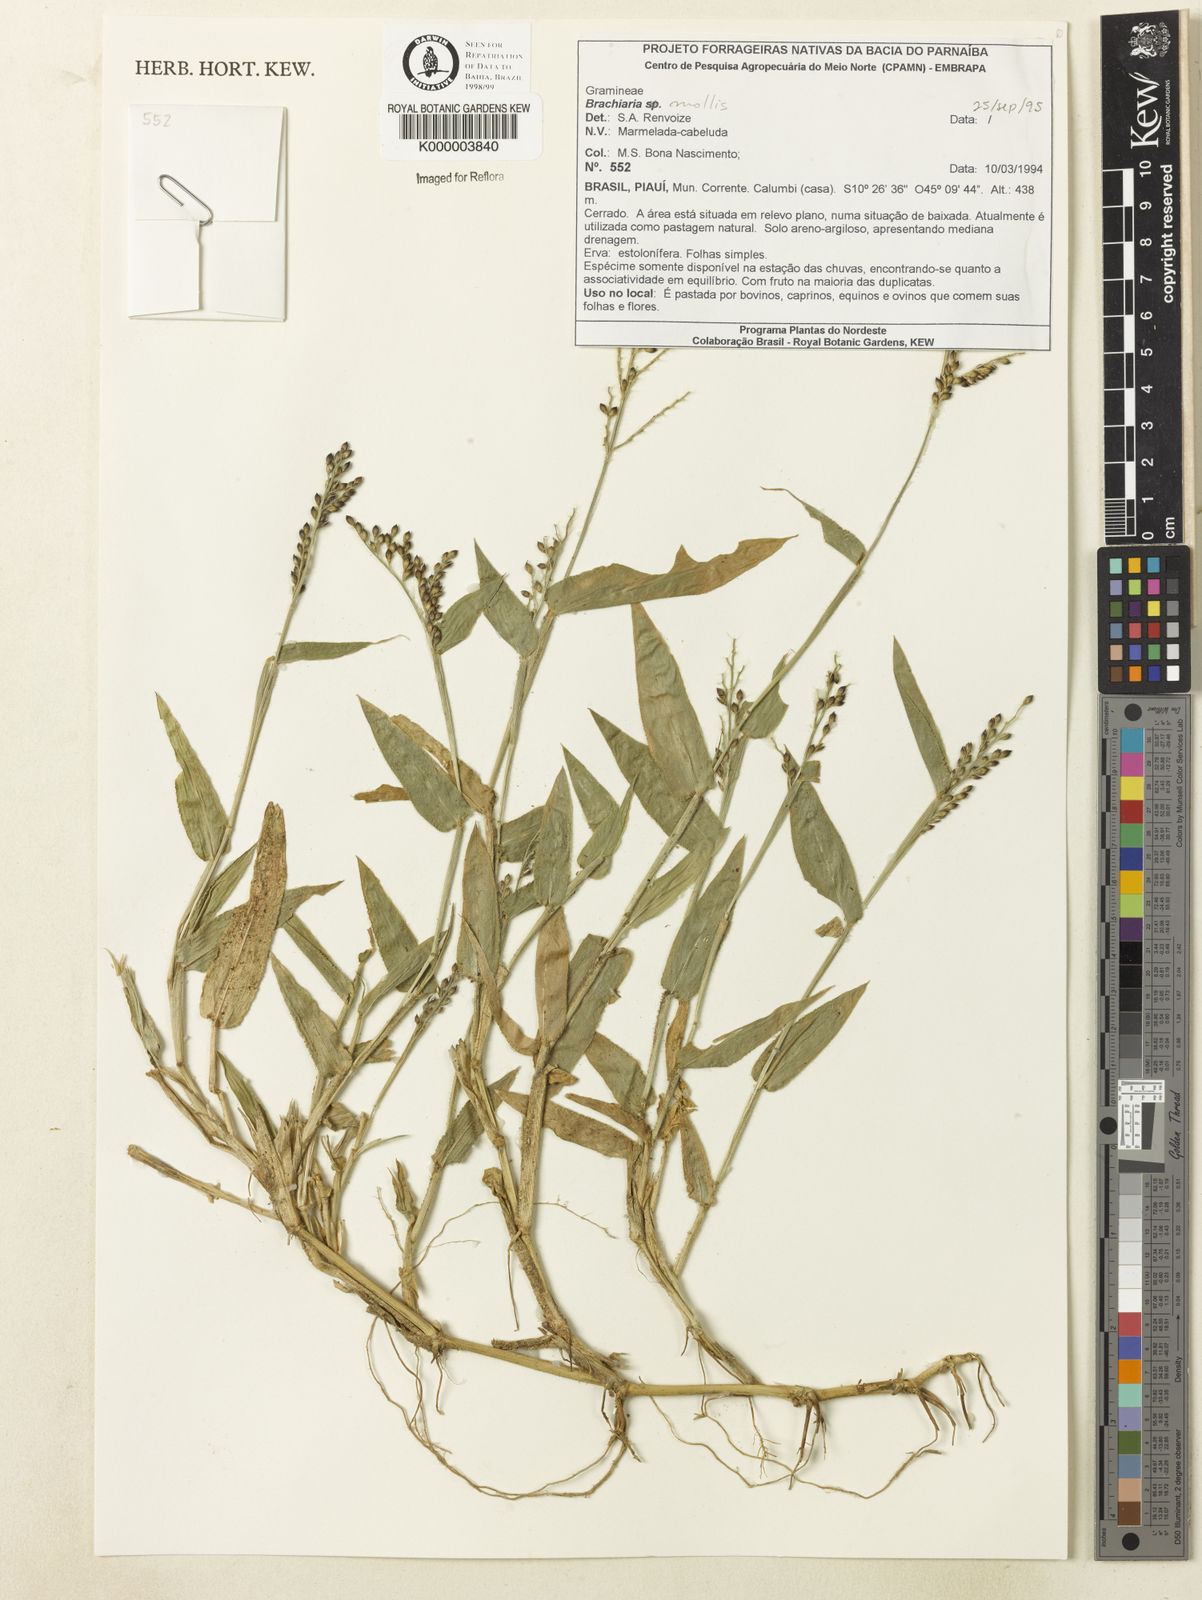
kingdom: Plantae
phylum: Tracheophyta
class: Liliopsida
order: Poales
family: Poaceae
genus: Urochloa
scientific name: Urochloa mollis
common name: Grass
